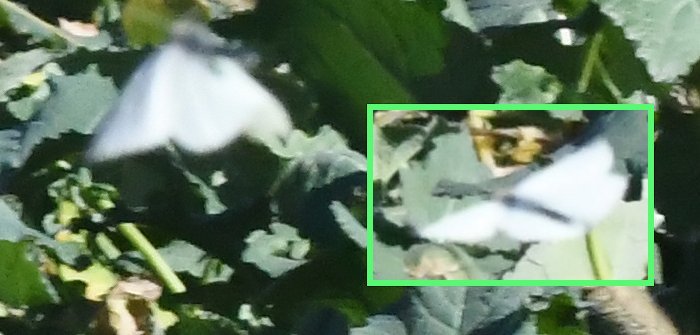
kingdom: Animalia
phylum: Arthropoda
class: Insecta
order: Lepidoptera
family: Pieridae
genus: Pieris
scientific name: Pieris rapae
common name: Cabbage White
